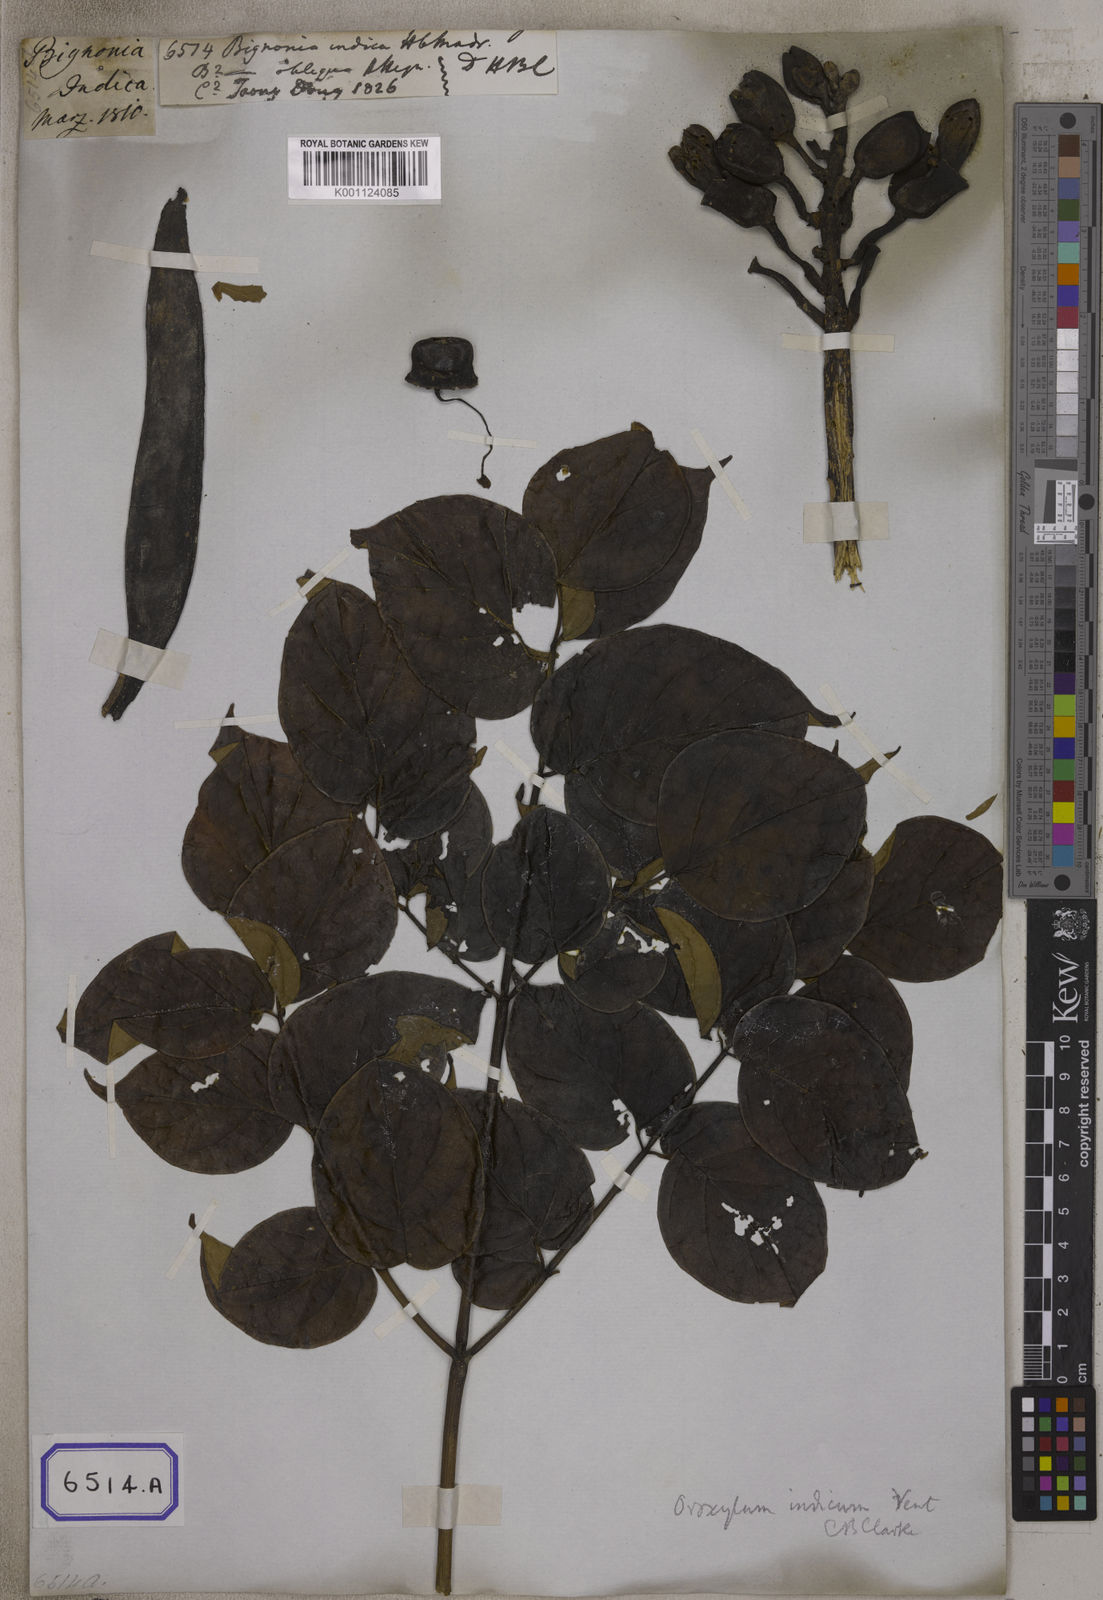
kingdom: Plantae
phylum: Tracheophyta
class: Magnoliopsida
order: Lamiales
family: Bignoniaceae
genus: Oroxylum
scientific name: Oroxylum indicum
